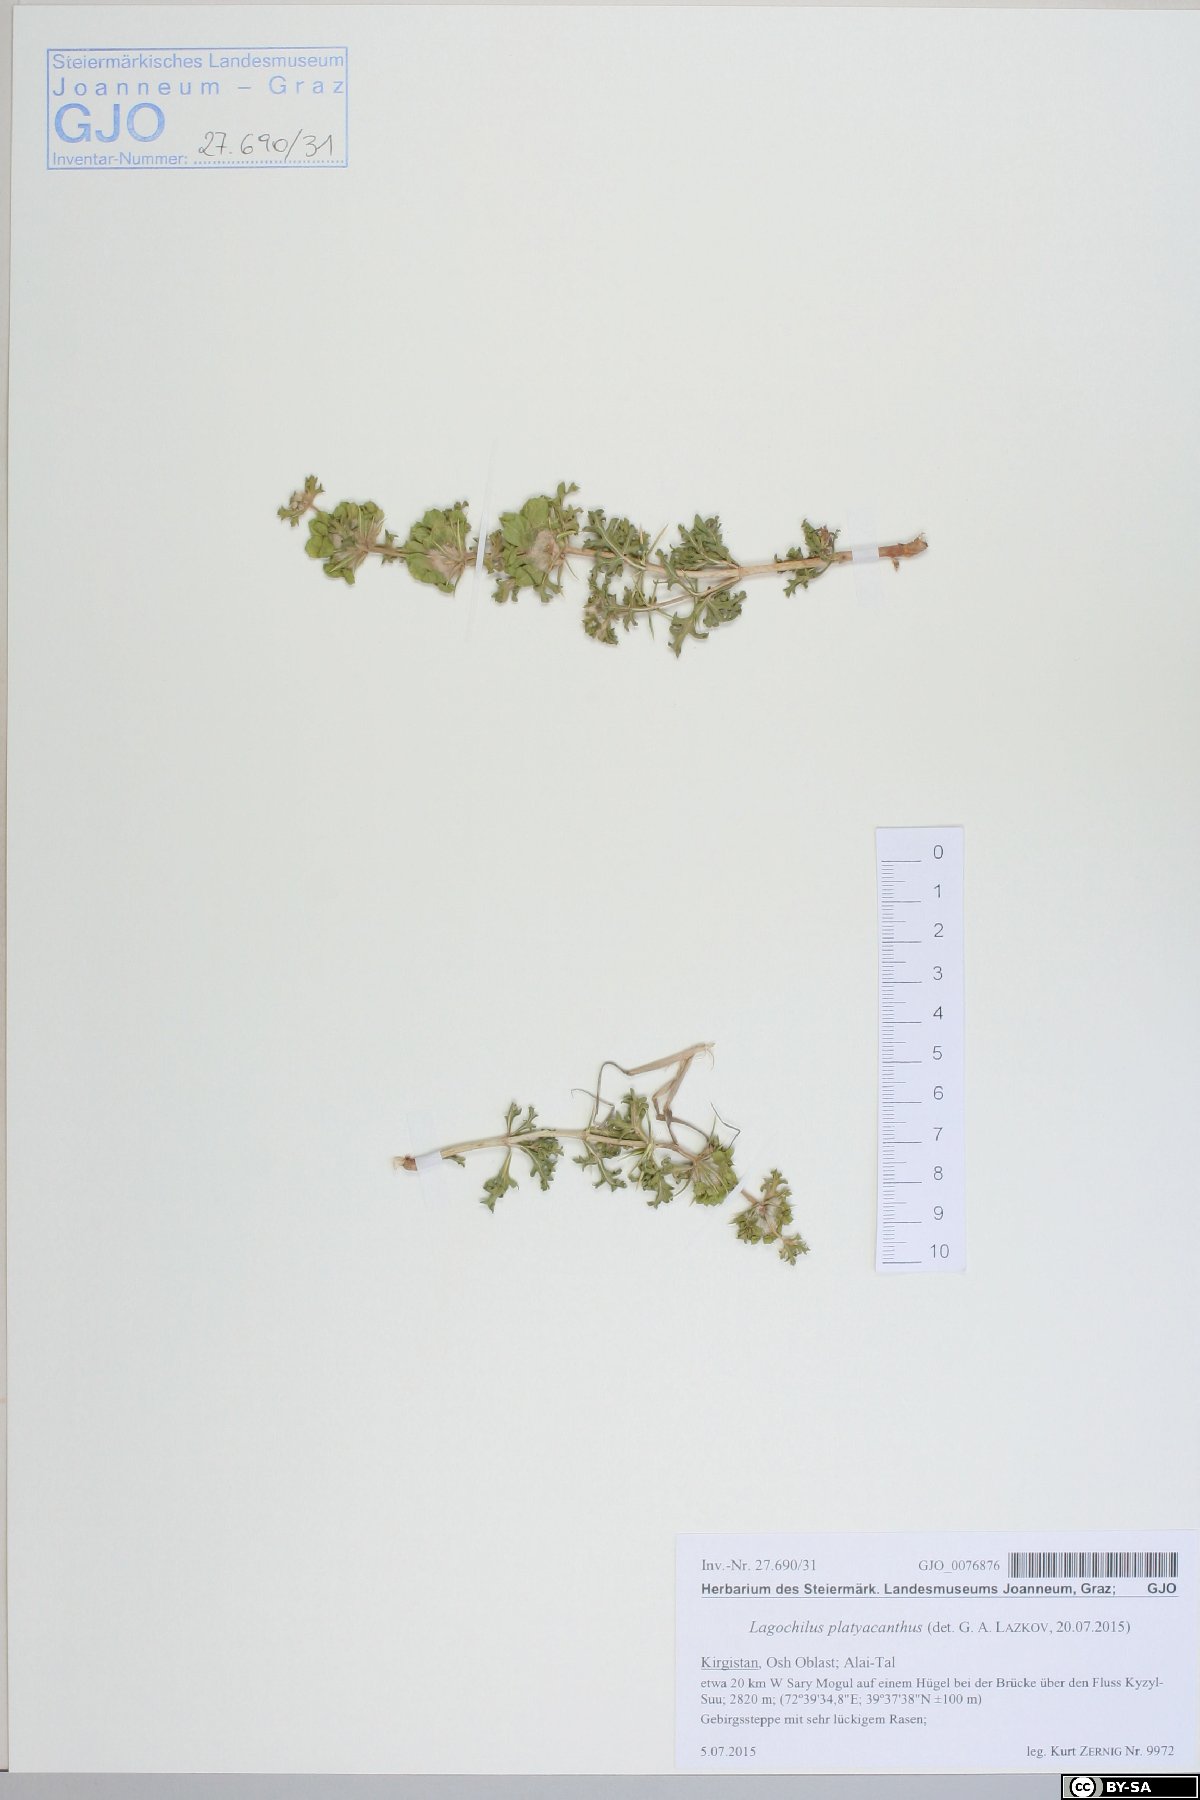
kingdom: Plantae
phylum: Tracheophyta
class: Magnoliopsida
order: Lamiales
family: Lamiaceae
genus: Lagochilus
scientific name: Lagochilus platyacanthus
